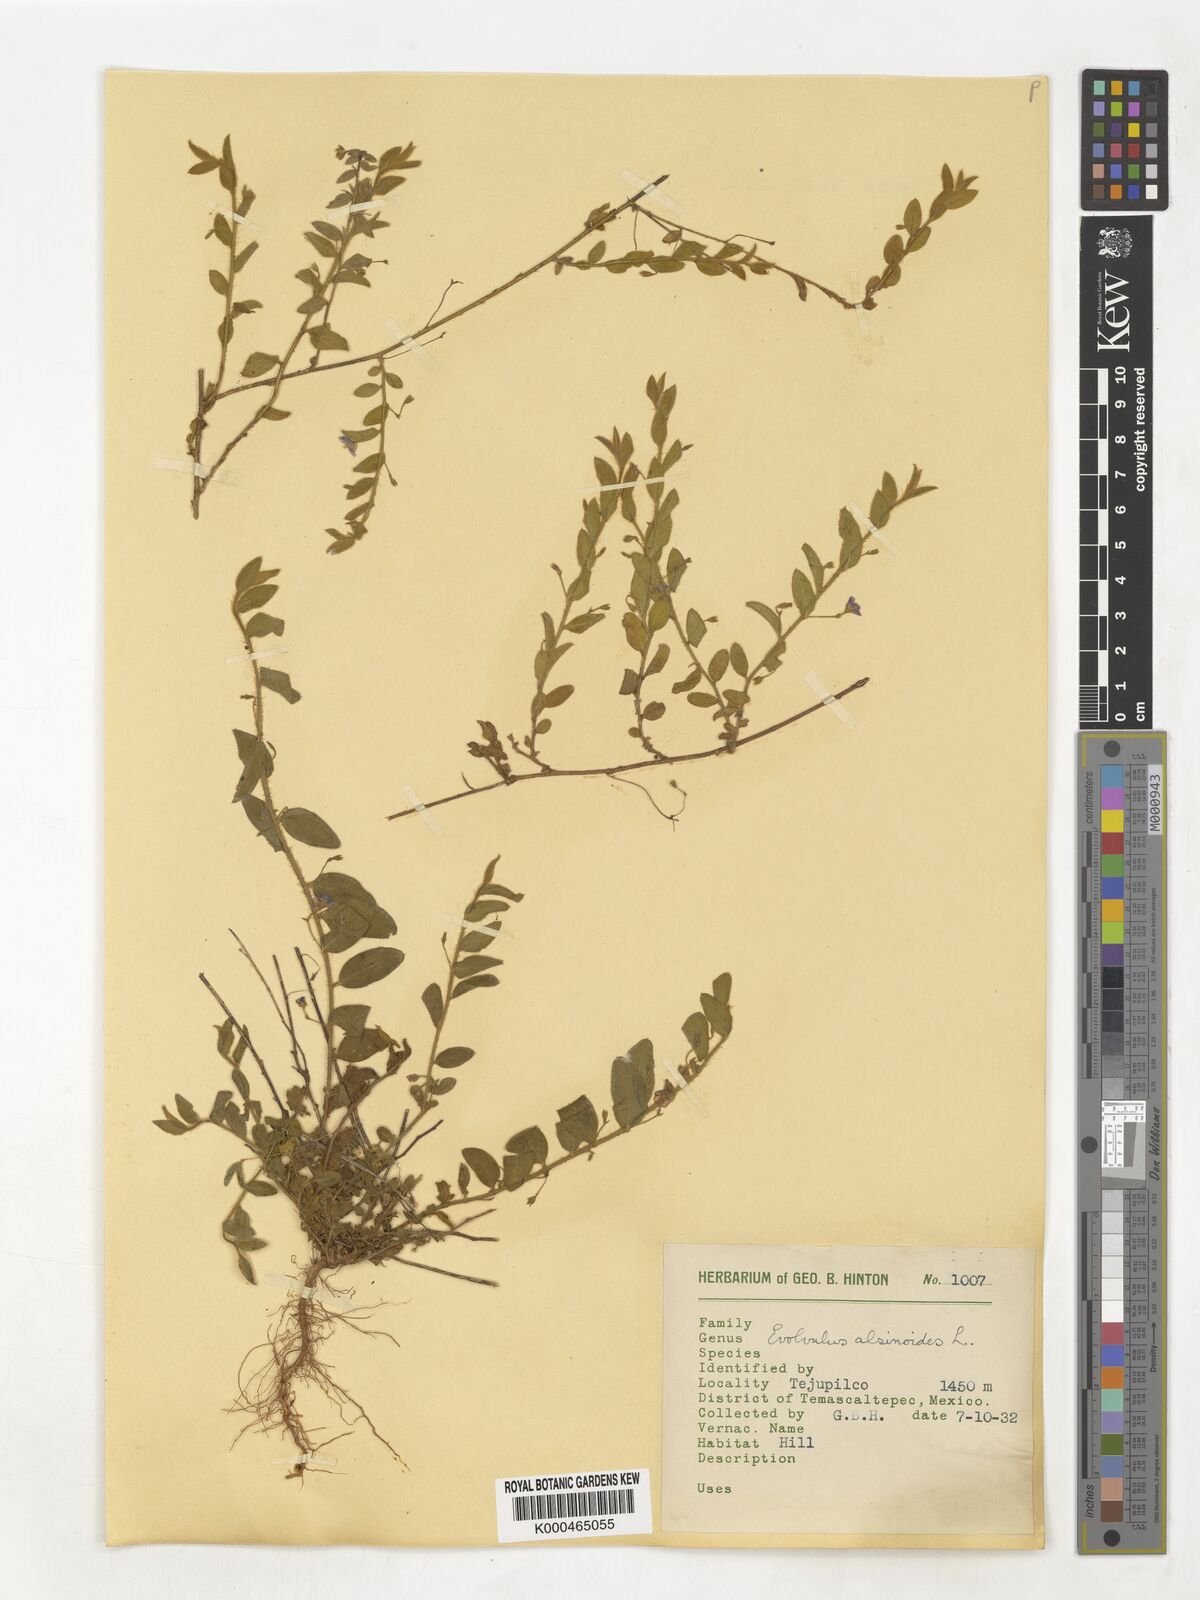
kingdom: Plantae
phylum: Tracheophyta
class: Magnoliopsida
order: Solanales
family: Convolvulaceae
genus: Evolvulus
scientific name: Evolvulus alsinoides
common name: Slender dwarf morning-glory
